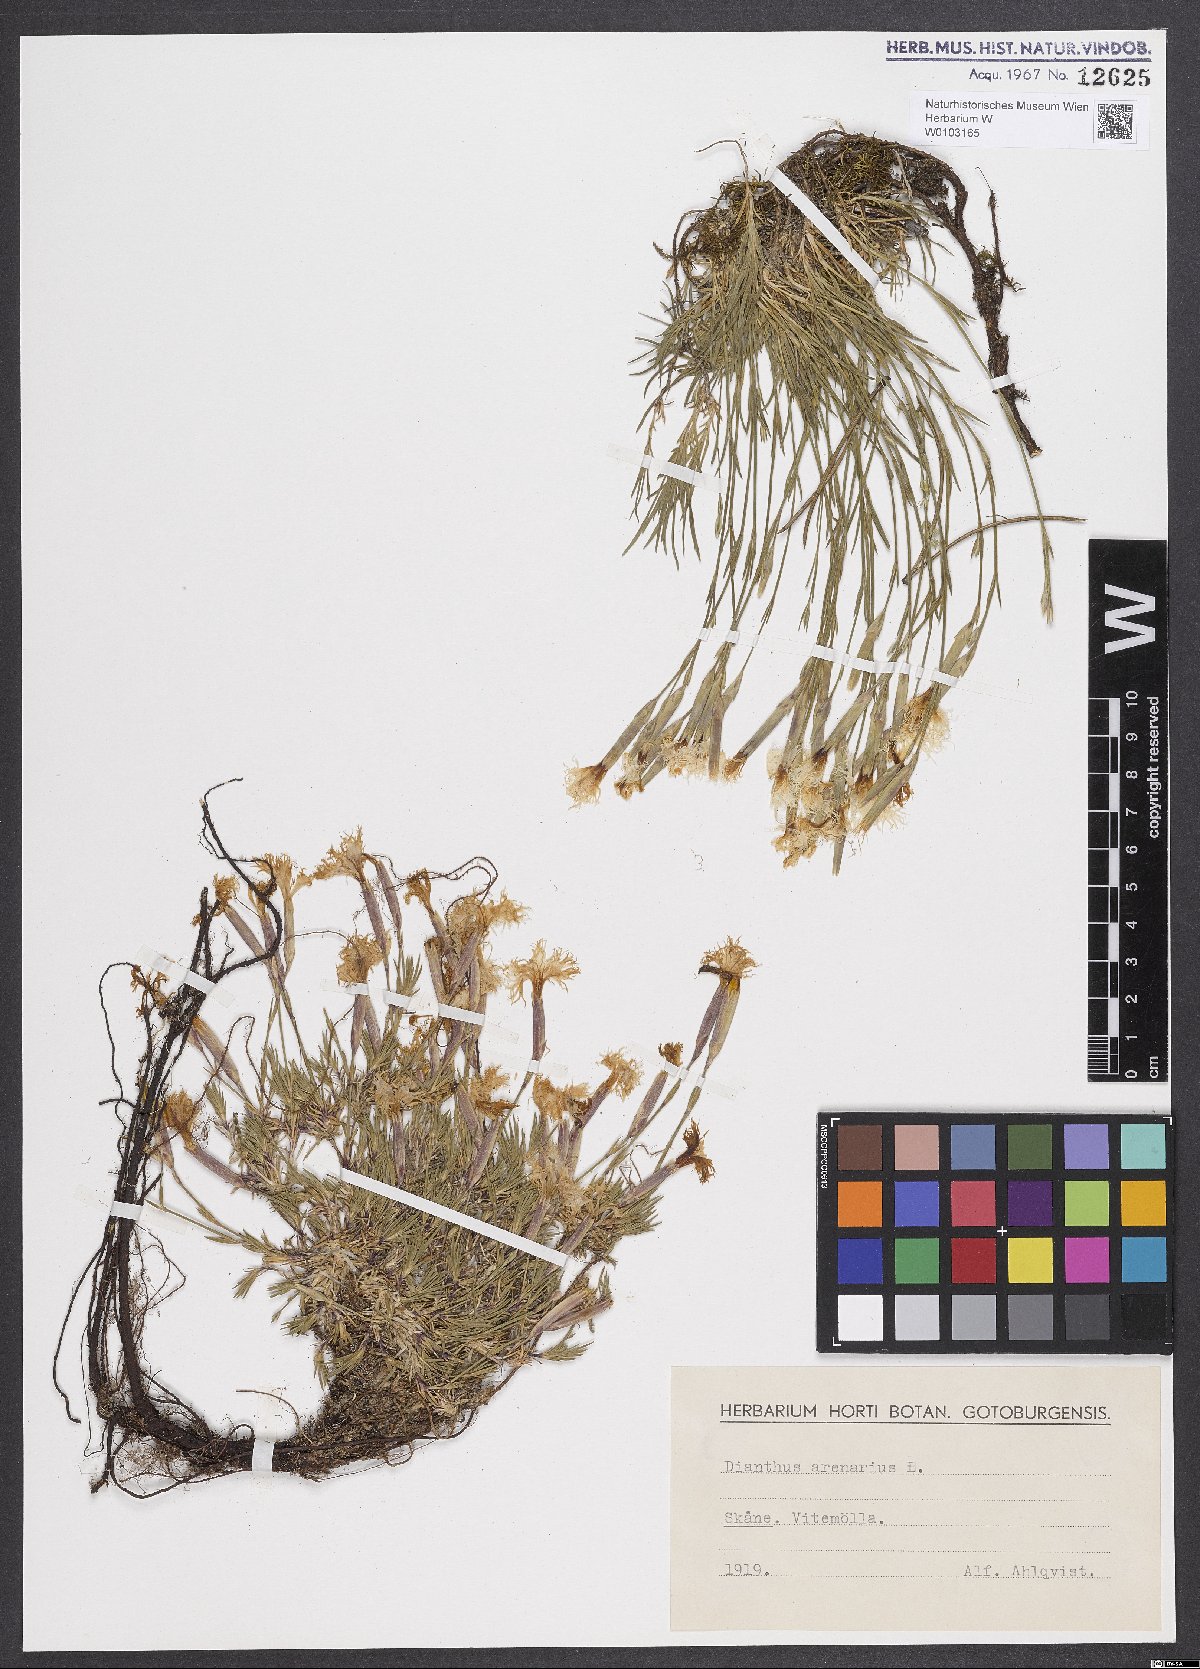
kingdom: Plantae
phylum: Tracheophyta
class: Magnoliopsida
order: Caryophyllales
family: Caryophyllaceae
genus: Dianthus
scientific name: Dianthus arenarius
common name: Stone pink
